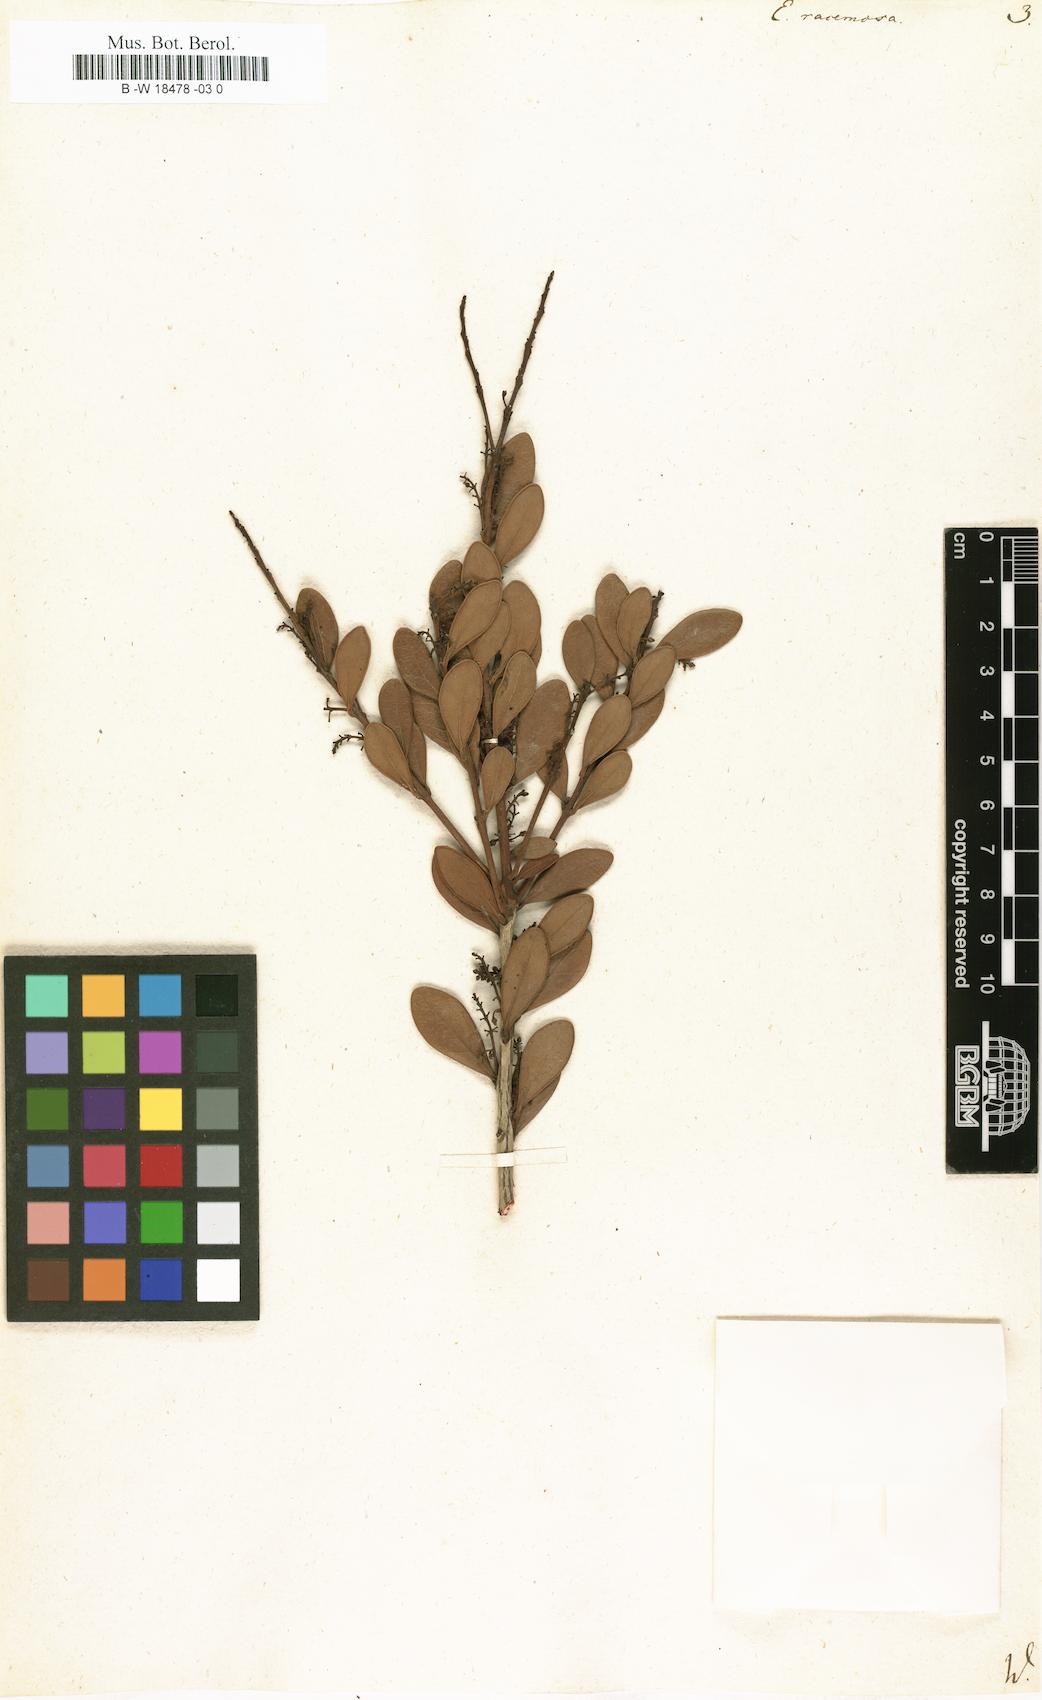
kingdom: Plantae
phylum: Tracheophyta
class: Magnoliopsida
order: Ericales
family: Ebenaceae
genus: Euclea
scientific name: Euclea racemosa
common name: Dune guarri
